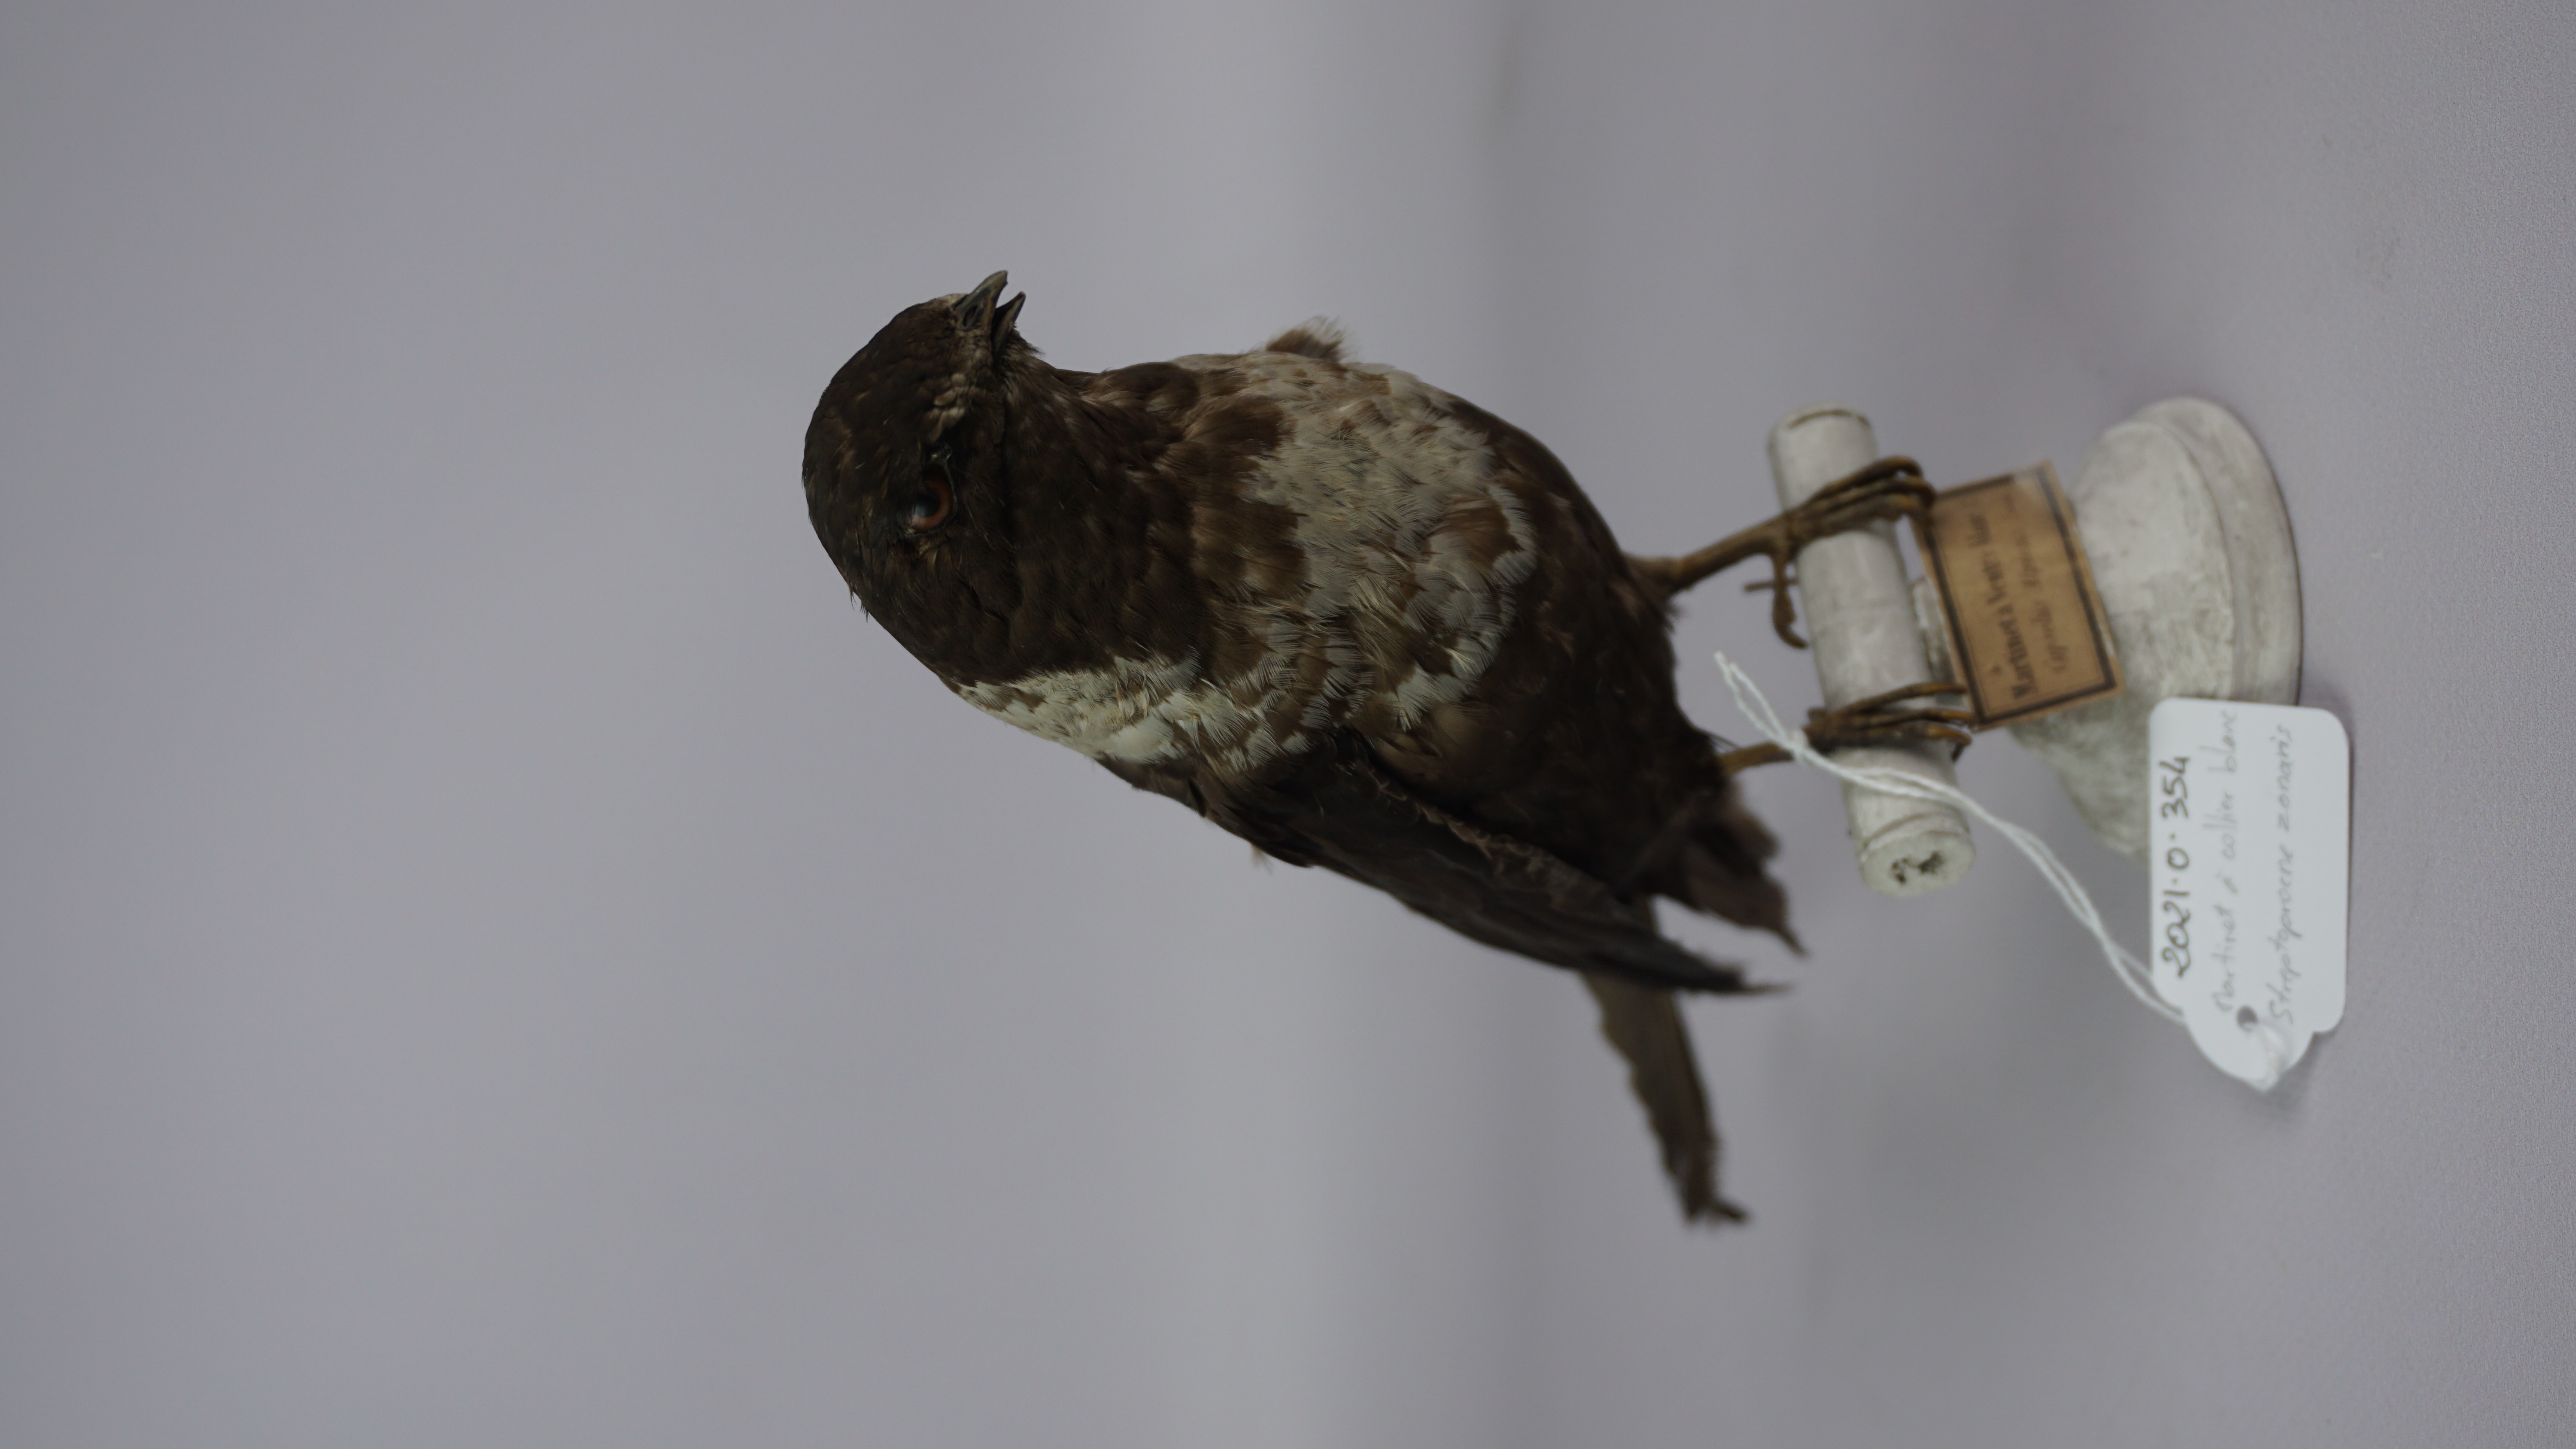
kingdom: Animalia
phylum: Chordata
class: Aves
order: Apodiformes
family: Apodidae
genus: Streptoprocne
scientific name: Streptoprocne zonaris
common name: White-collared swift
